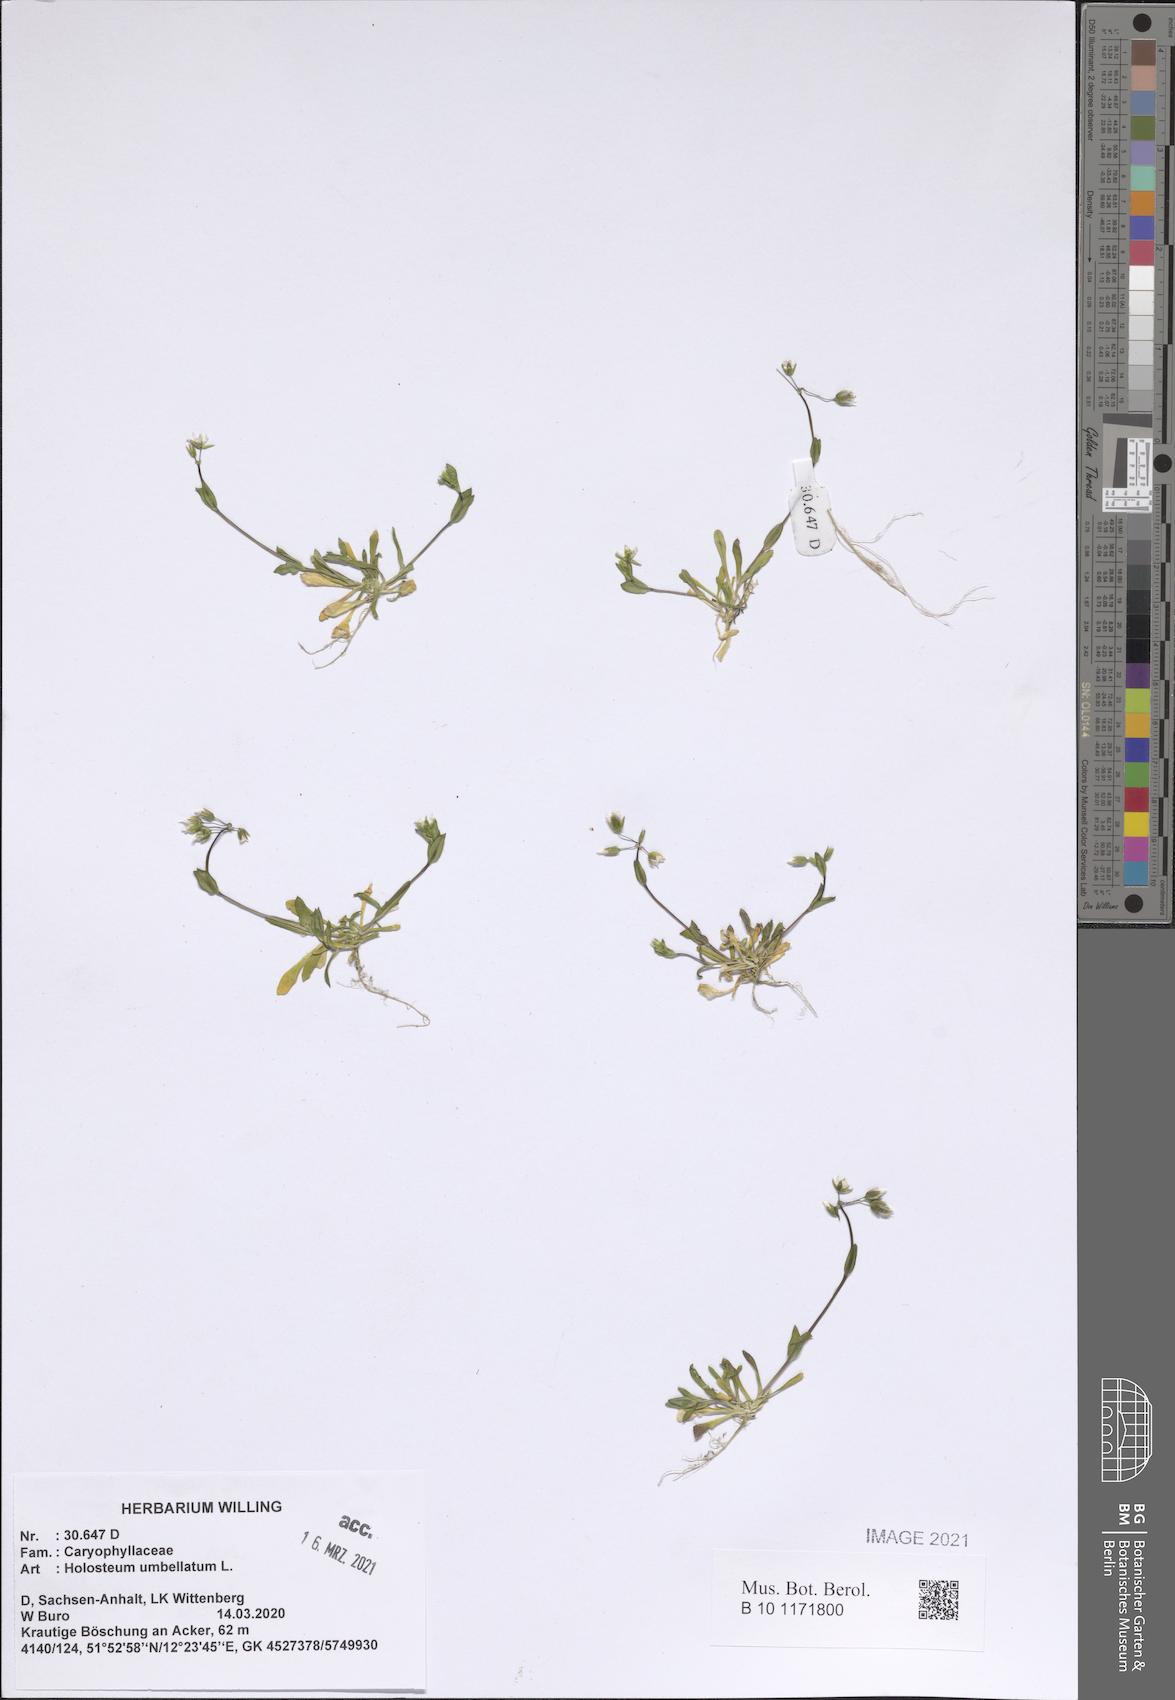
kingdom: Plantae
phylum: Tracheophyta
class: Magnoliopsida
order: Caryophyllales
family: Caryophyllaceae
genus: Holosteum
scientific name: Holosteum umbellatum
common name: Jagged chickweed
